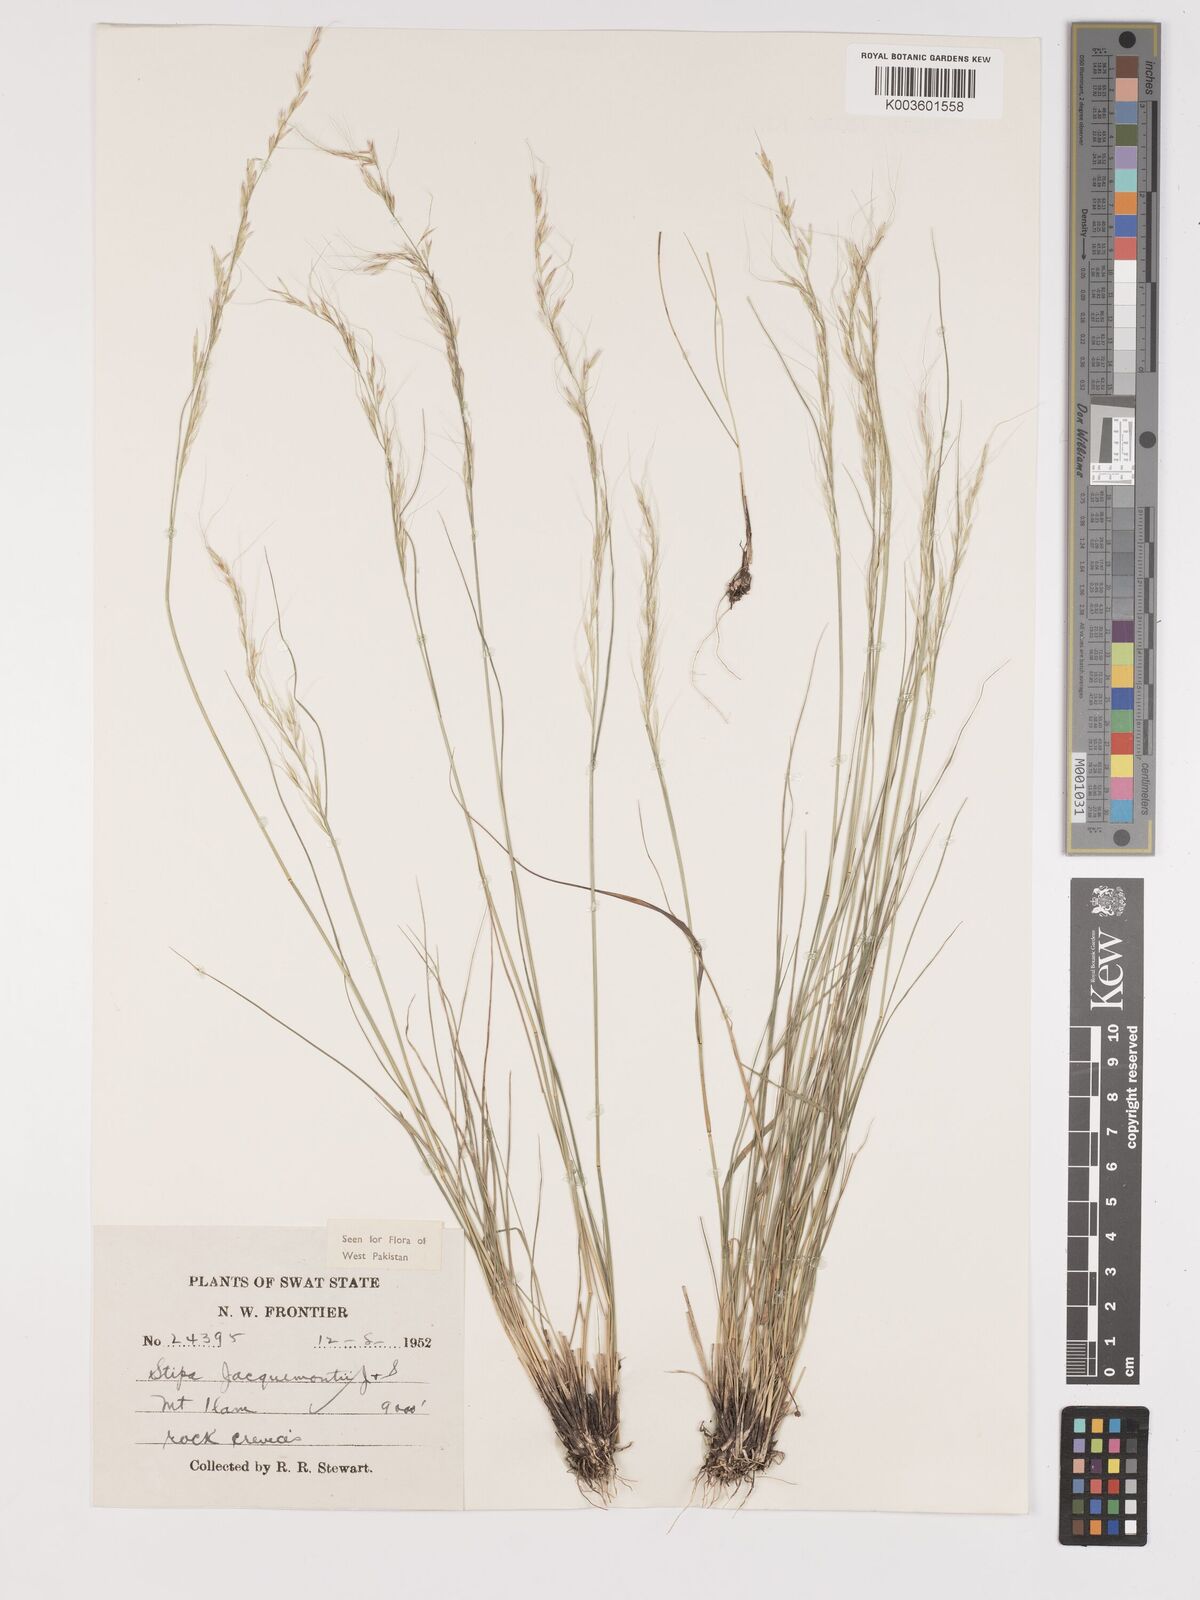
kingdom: Plantae
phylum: Tracheophyta
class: Liliopsida
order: Poales
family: Poaceae
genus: Achnatherum
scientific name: Achnatherum jacquemontii
